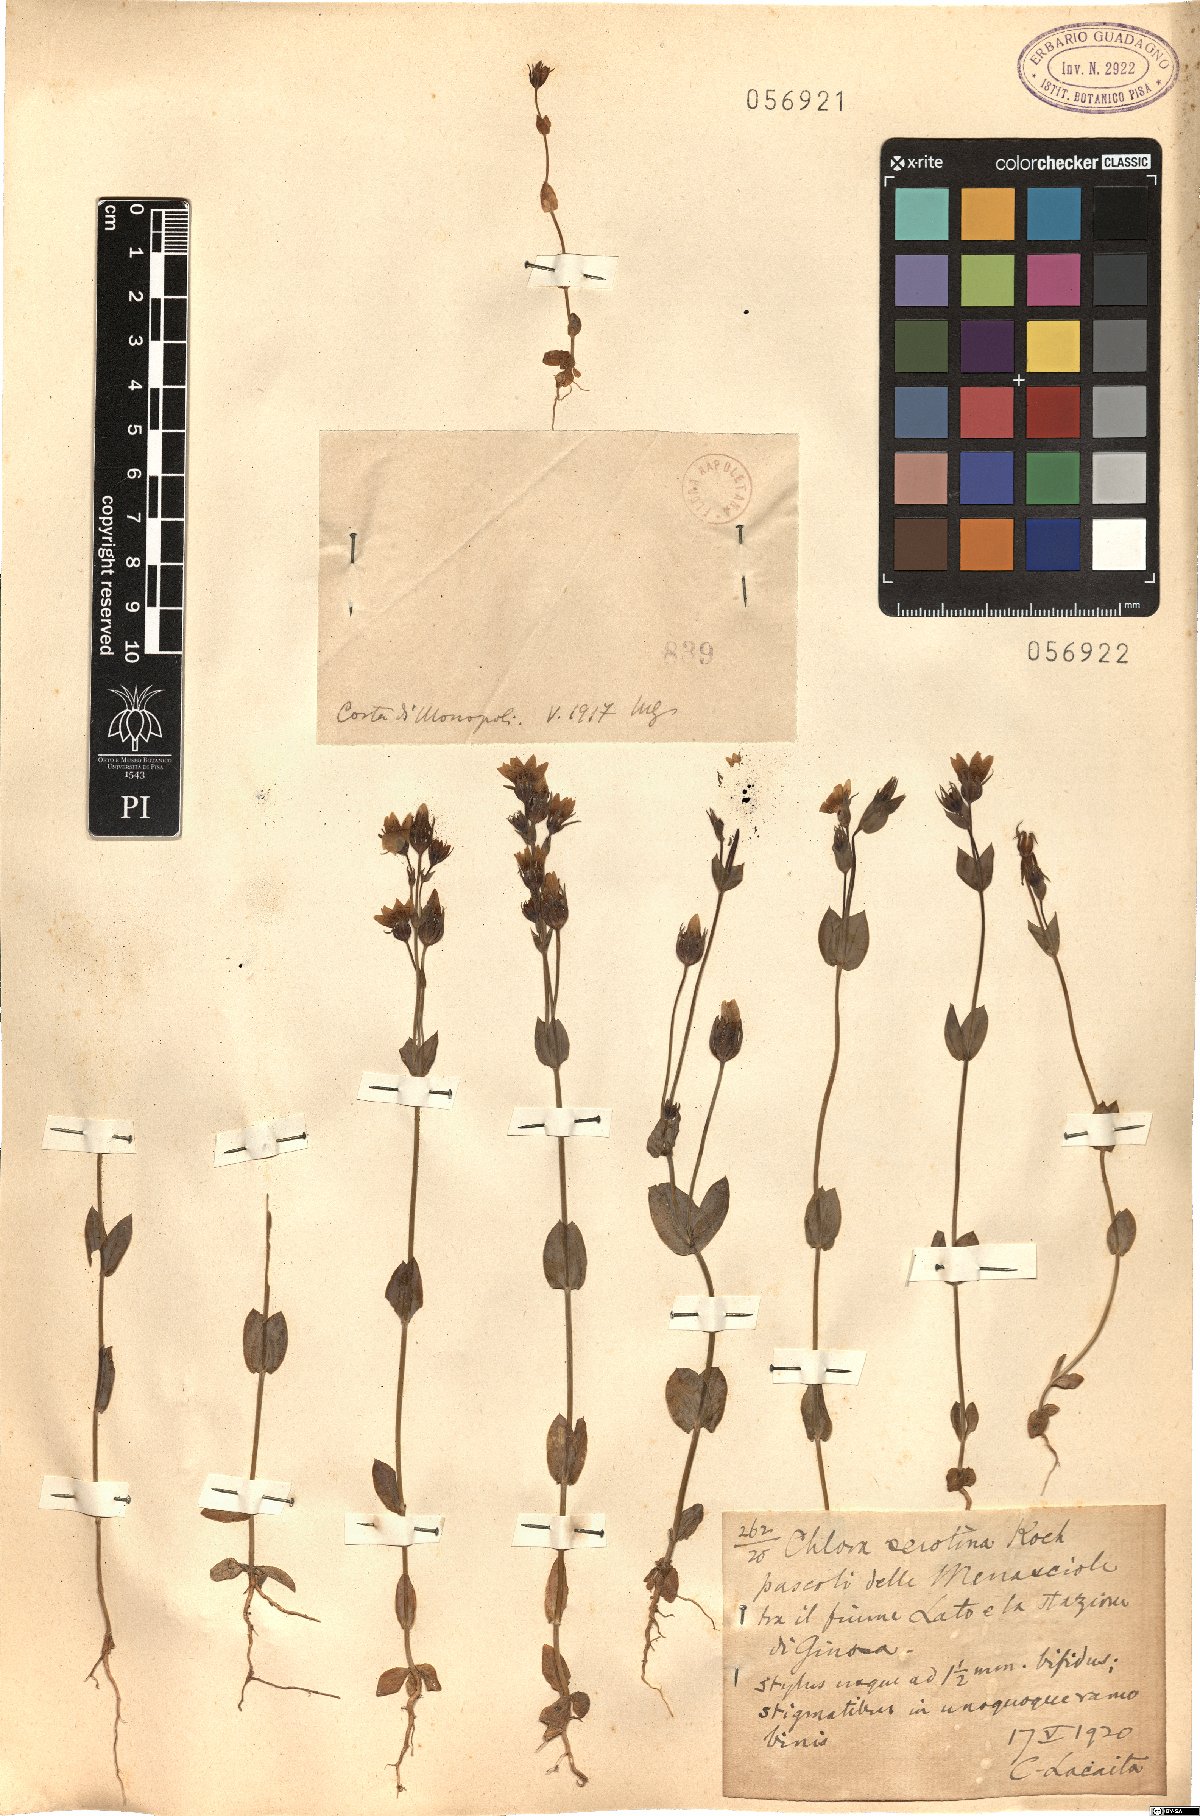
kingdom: Plantae
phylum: Tracheophyta
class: Magnoliopsida
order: Gentianales
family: Gentianaceae
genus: Blackstonia
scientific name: Blackstonia acuminata
